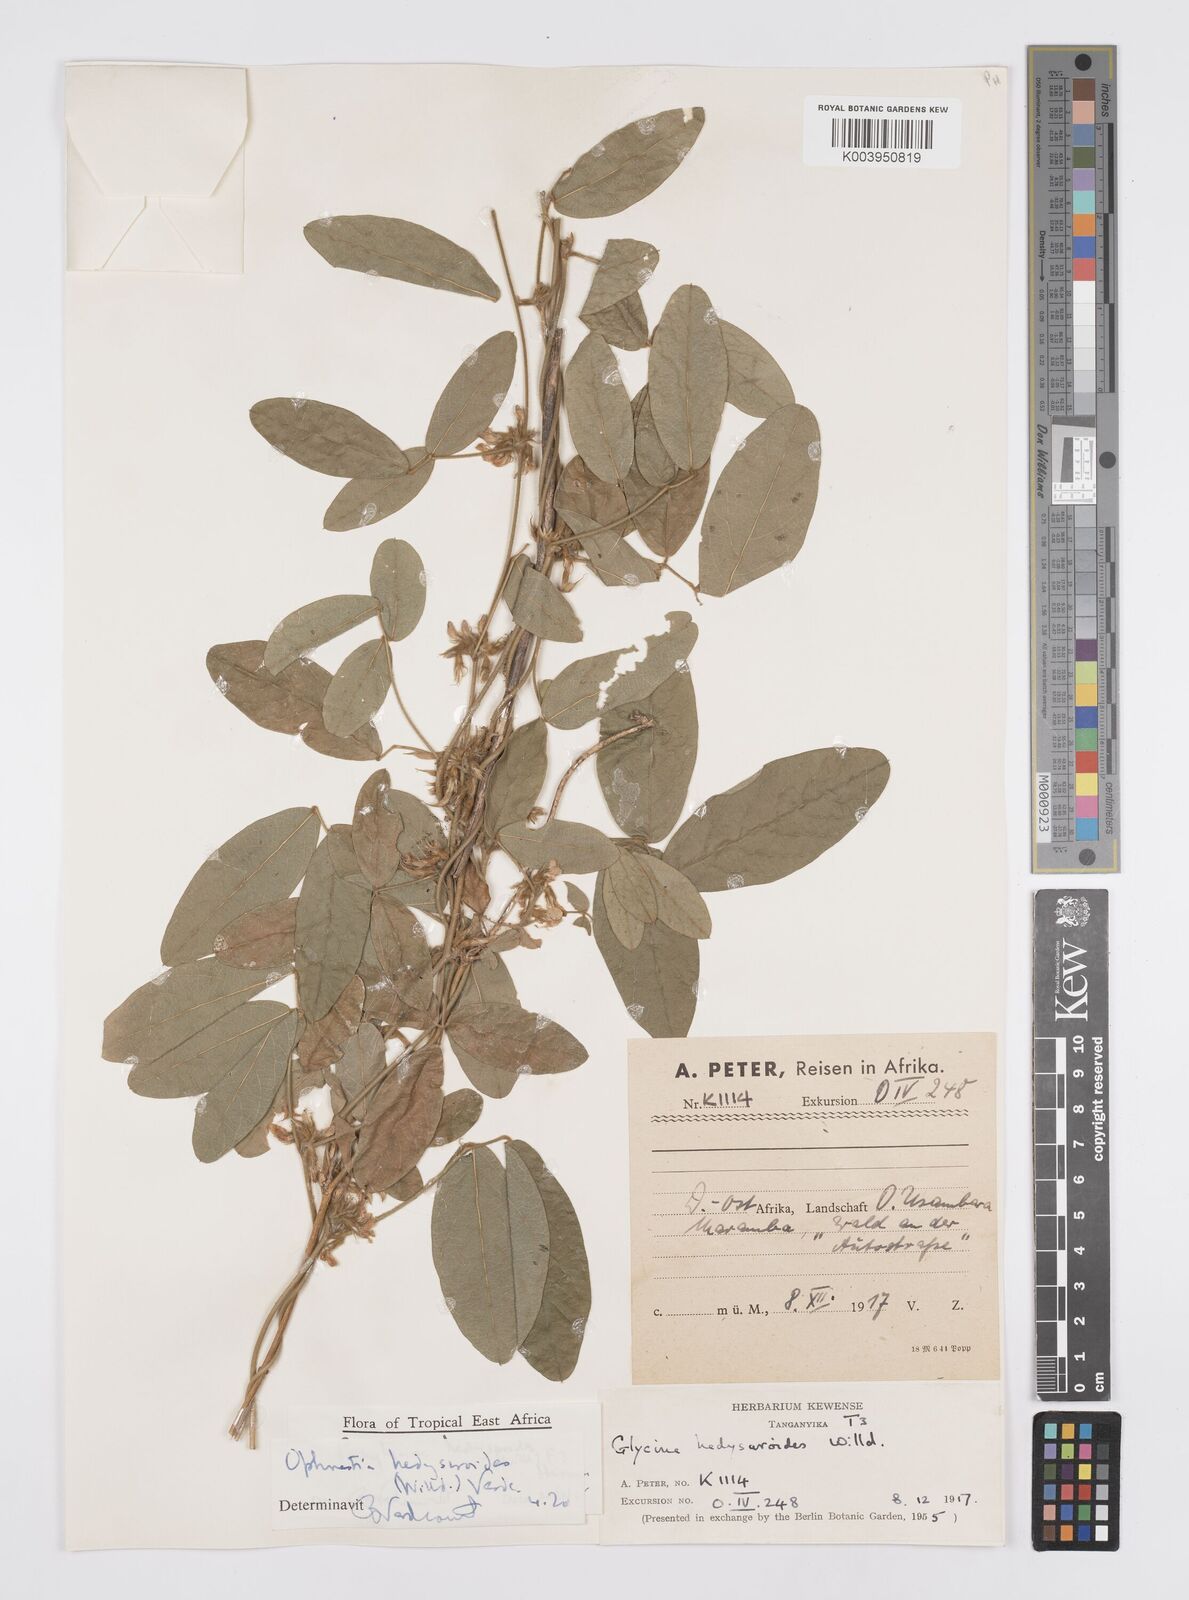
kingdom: Plantae
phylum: Tracheophyta
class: Magnoliopsida
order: Fabales
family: Fabaceae
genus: Ophrestia
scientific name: Ophrestia hedysaroides
